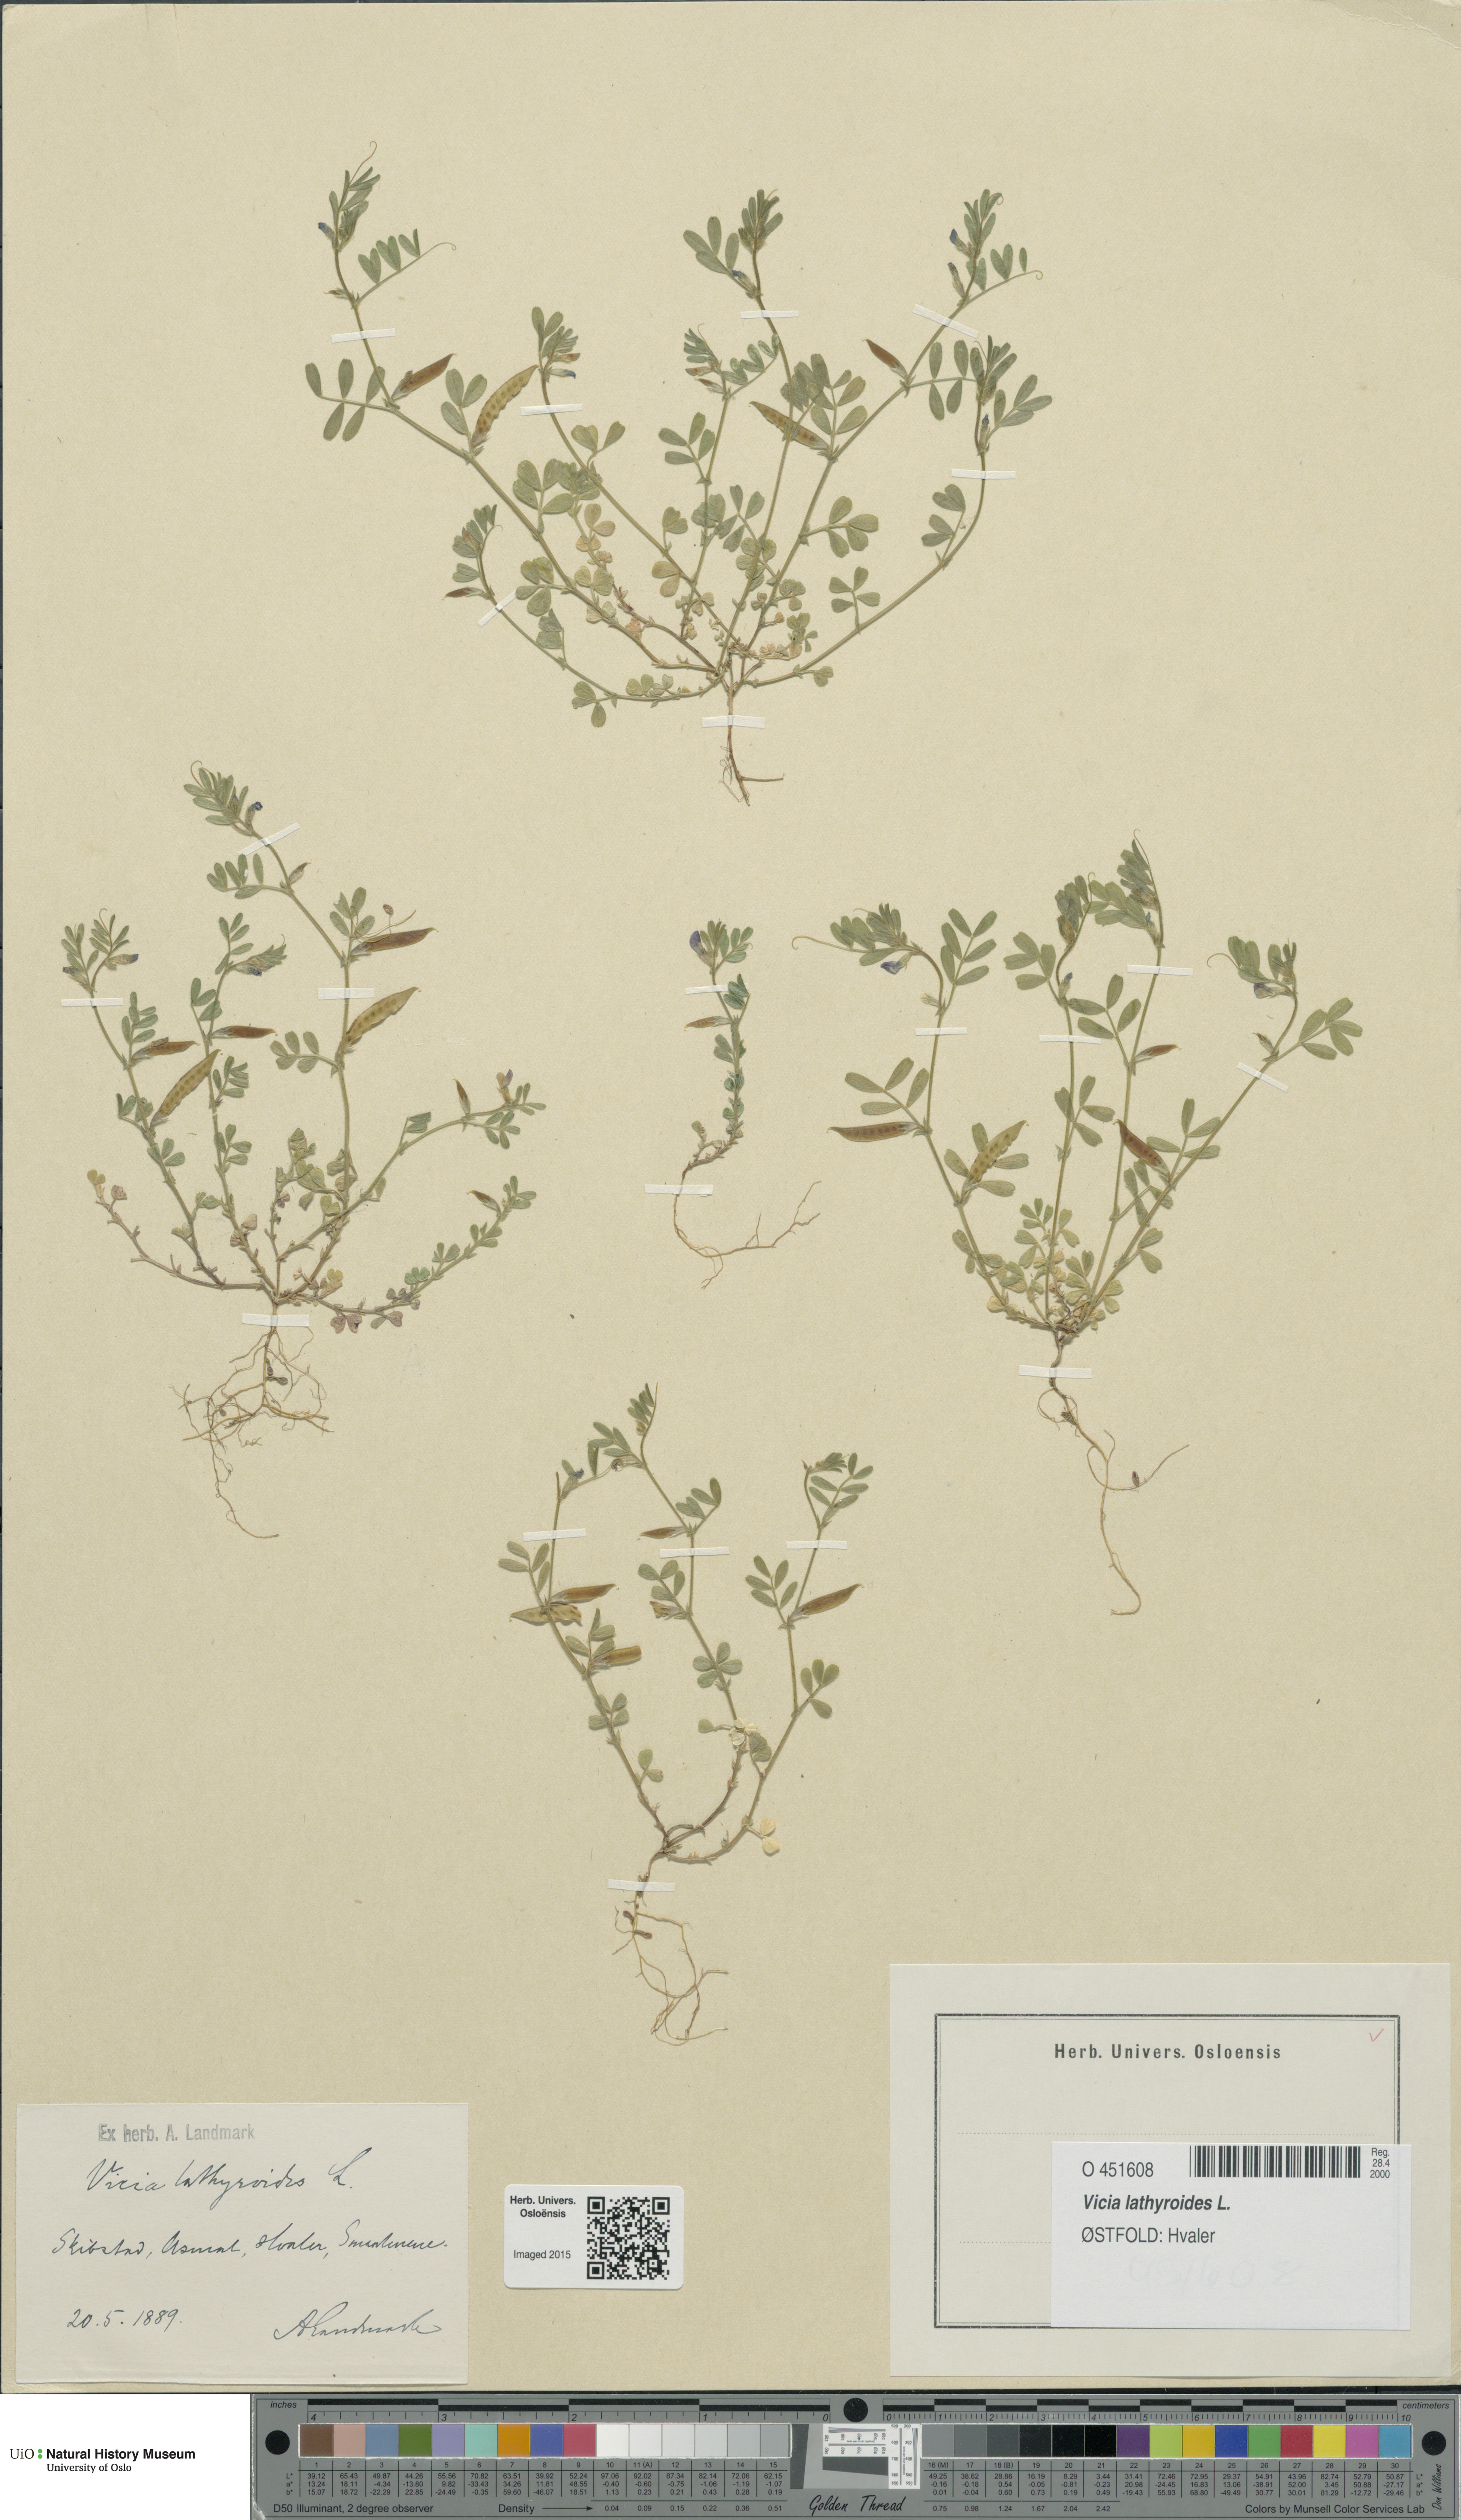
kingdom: Plantae
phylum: Tracheophyta
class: Magnoliopsida
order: Fabales
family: Fabaceae
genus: Vicia
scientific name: Vicia lathyroides
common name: Spring vetch
